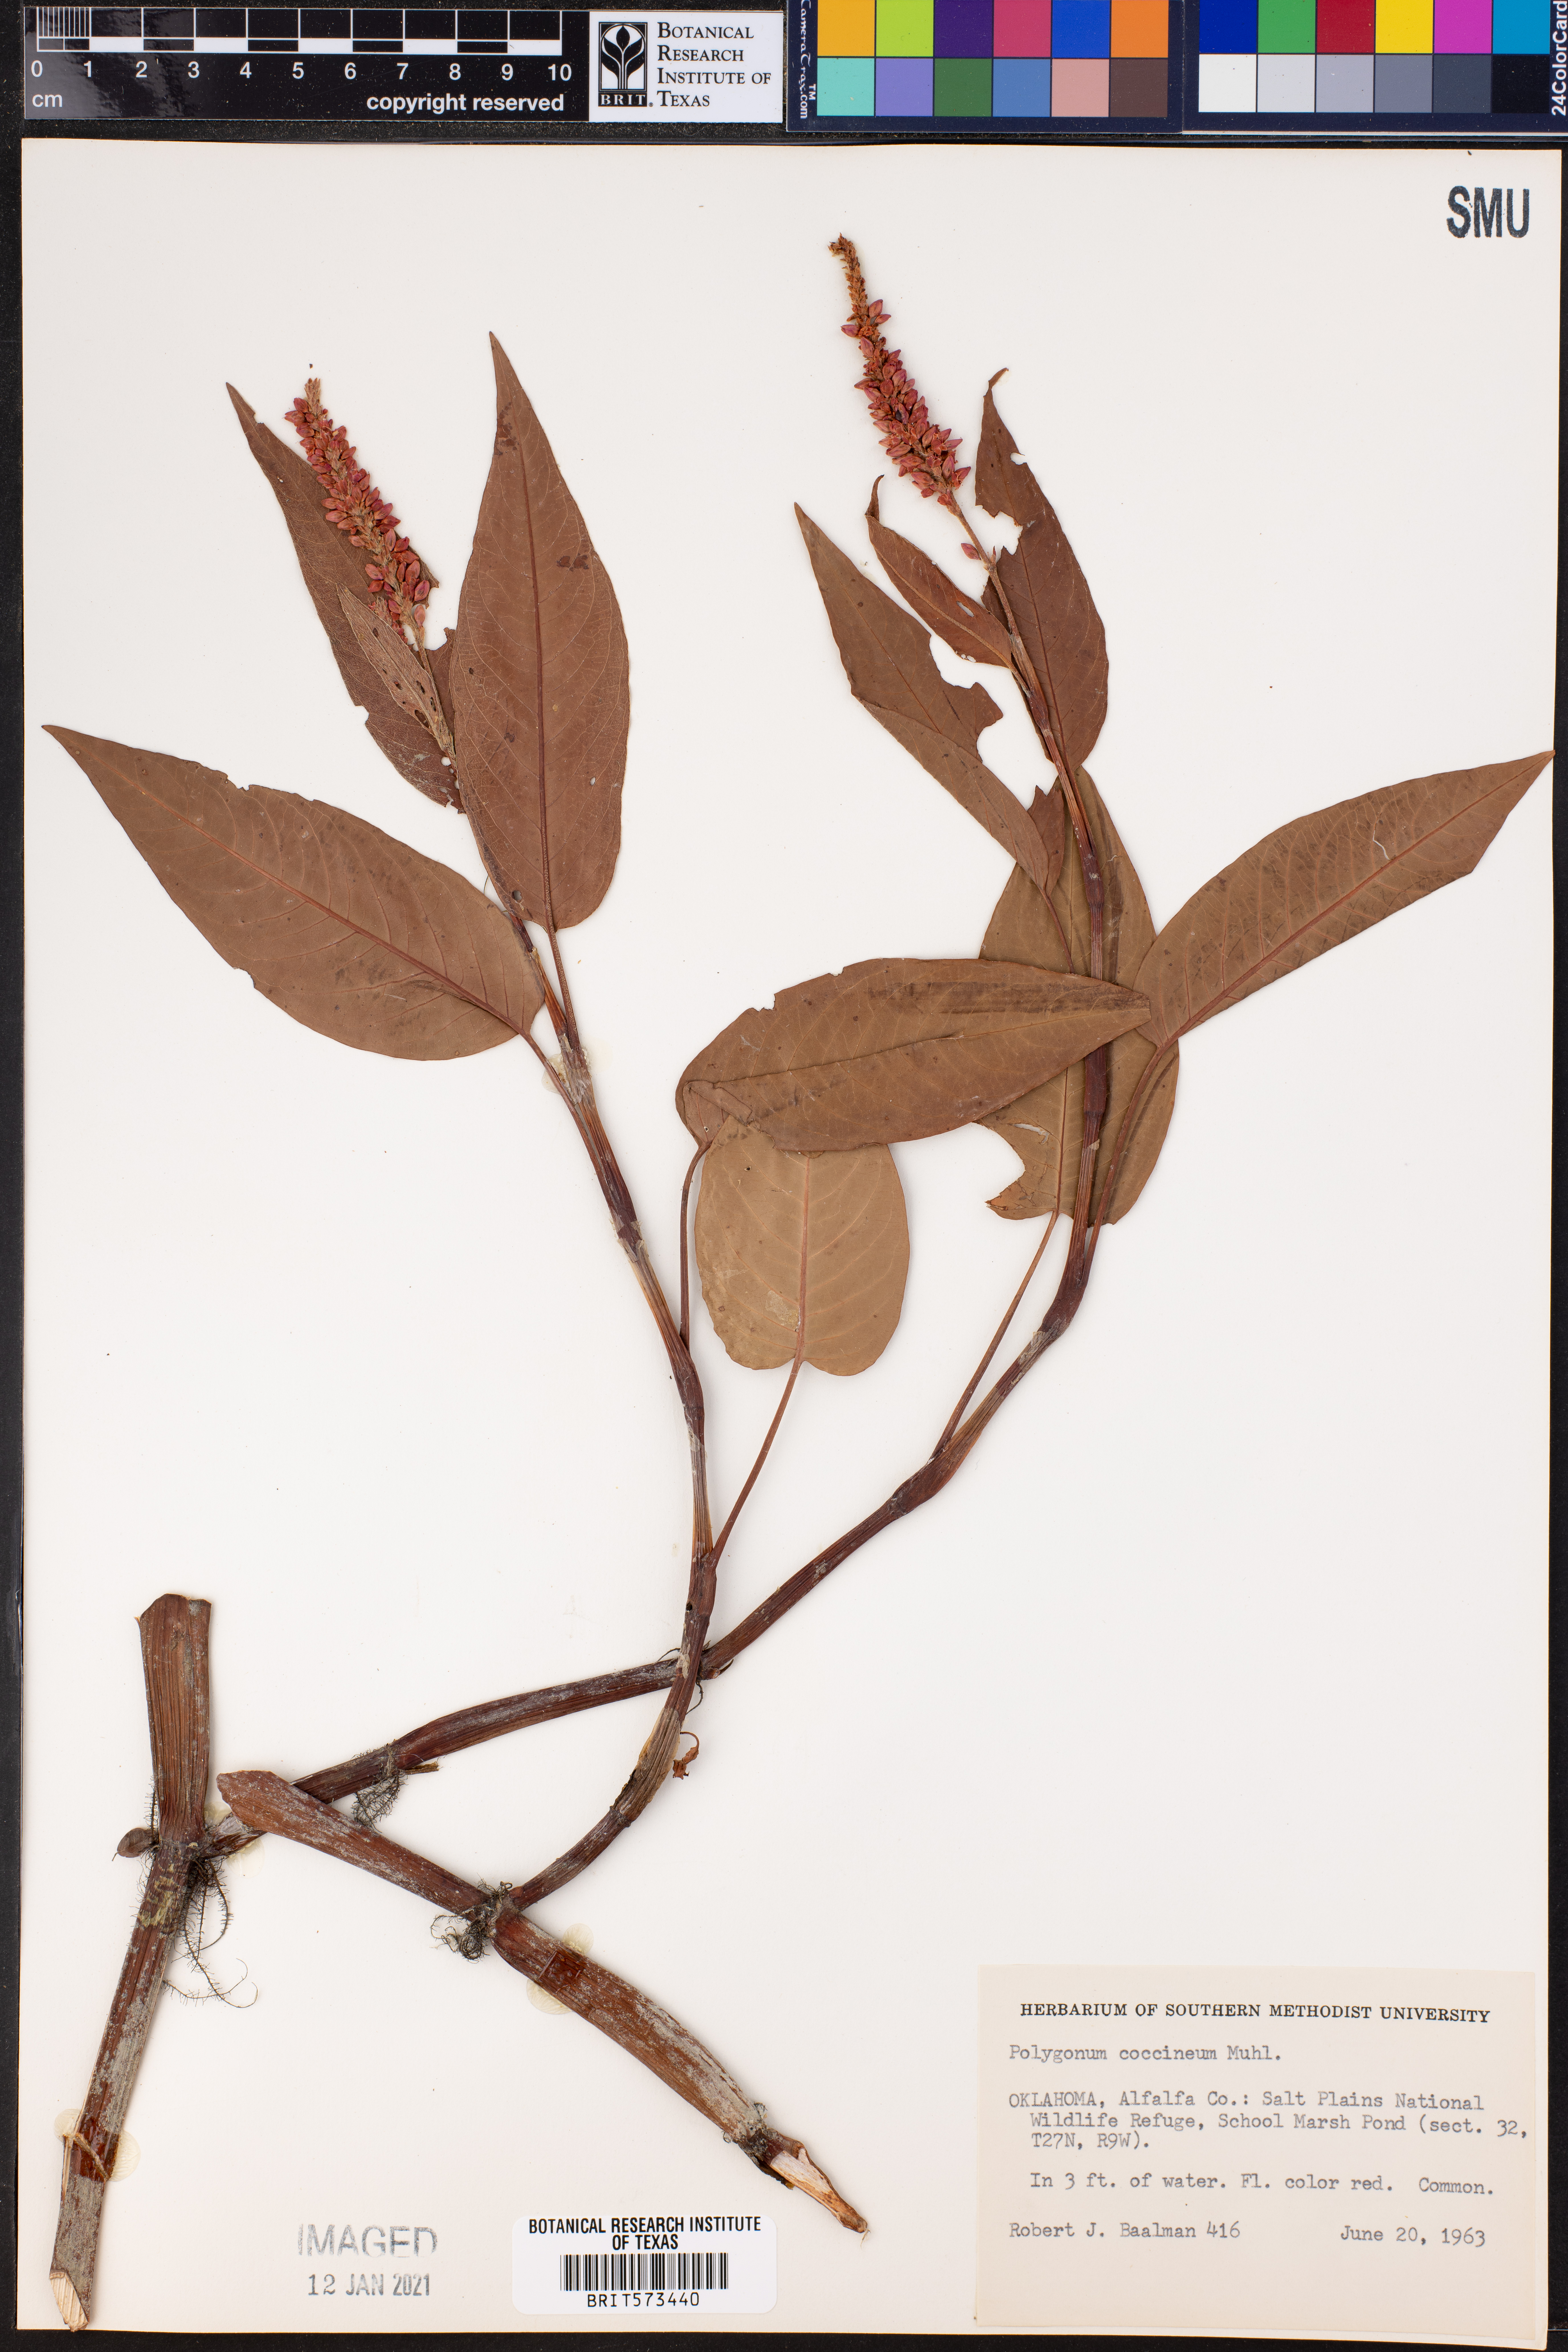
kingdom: Plantae
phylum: Tracheophyta
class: Magnoliopsida
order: Caryophyllales
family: Polygonaceae
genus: Persicaria
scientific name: Persicaria amphibia
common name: Amphibious bistort
